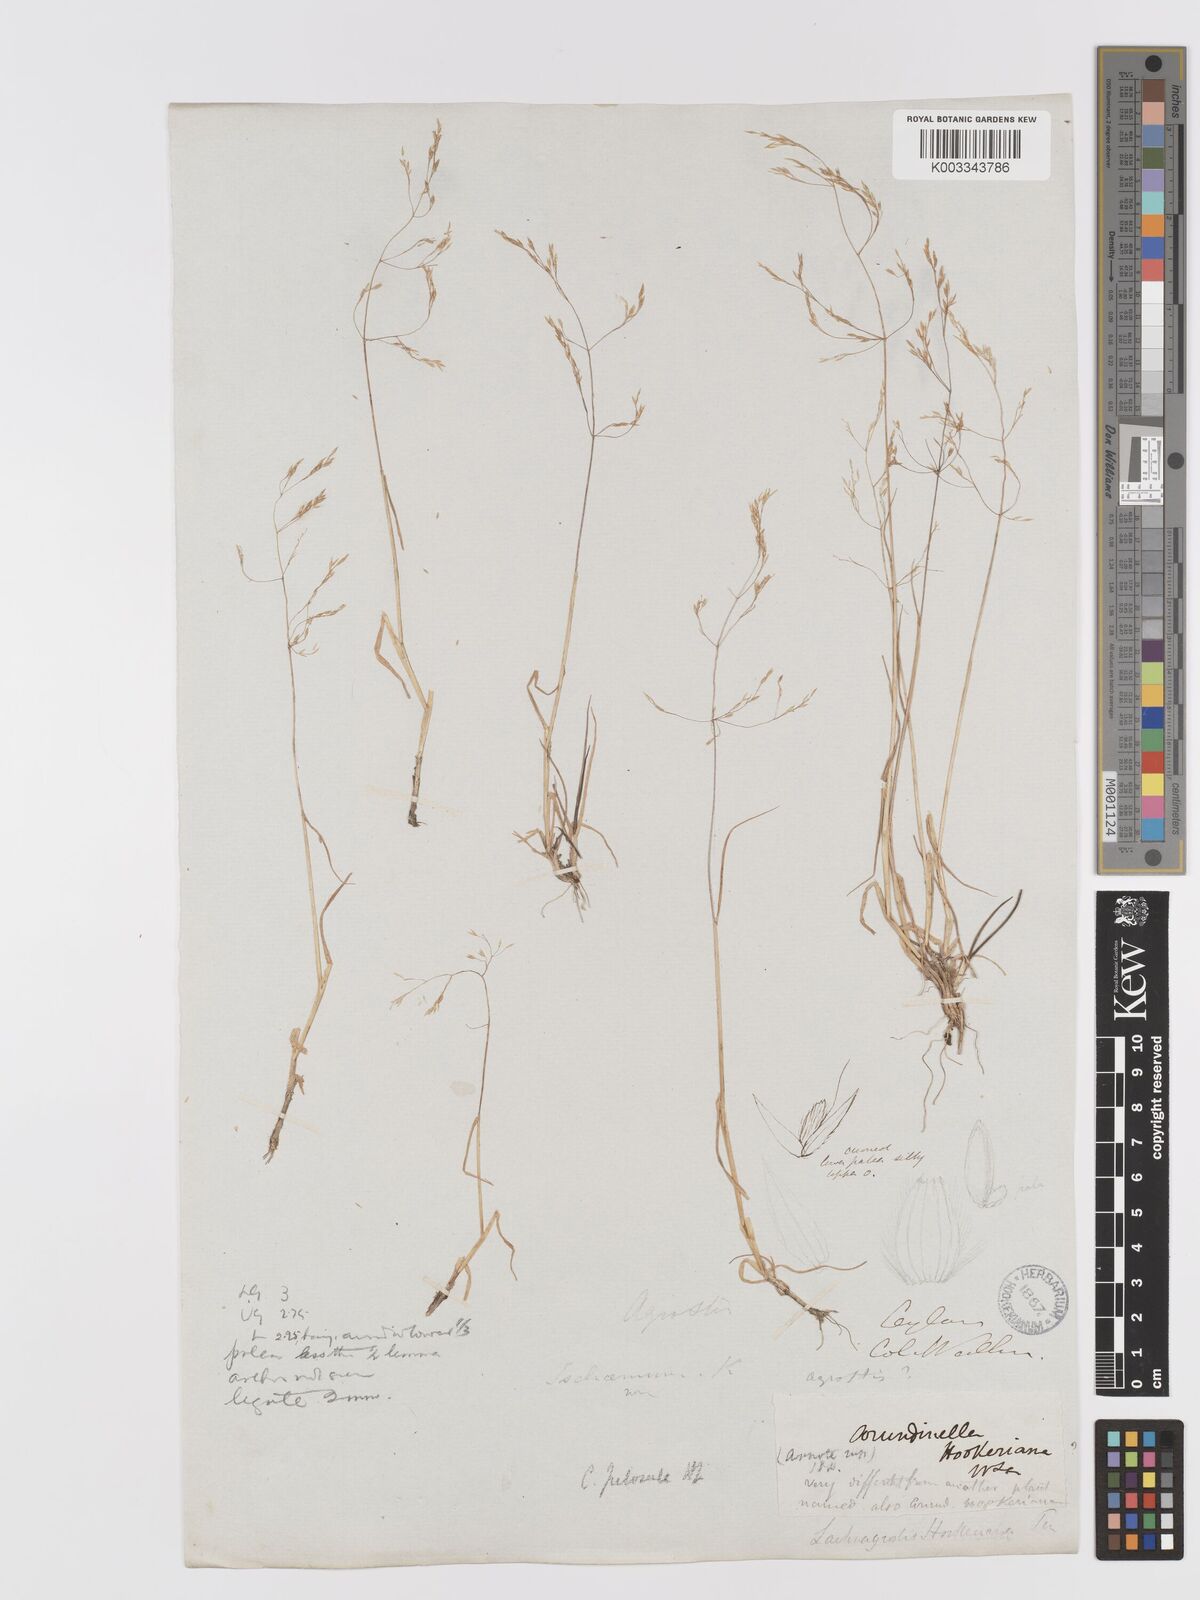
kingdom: Plantae
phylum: Tracheophyta
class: Liliopsida
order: Poales
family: Poaceae
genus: Agrostis
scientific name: Agrostis pilosula
